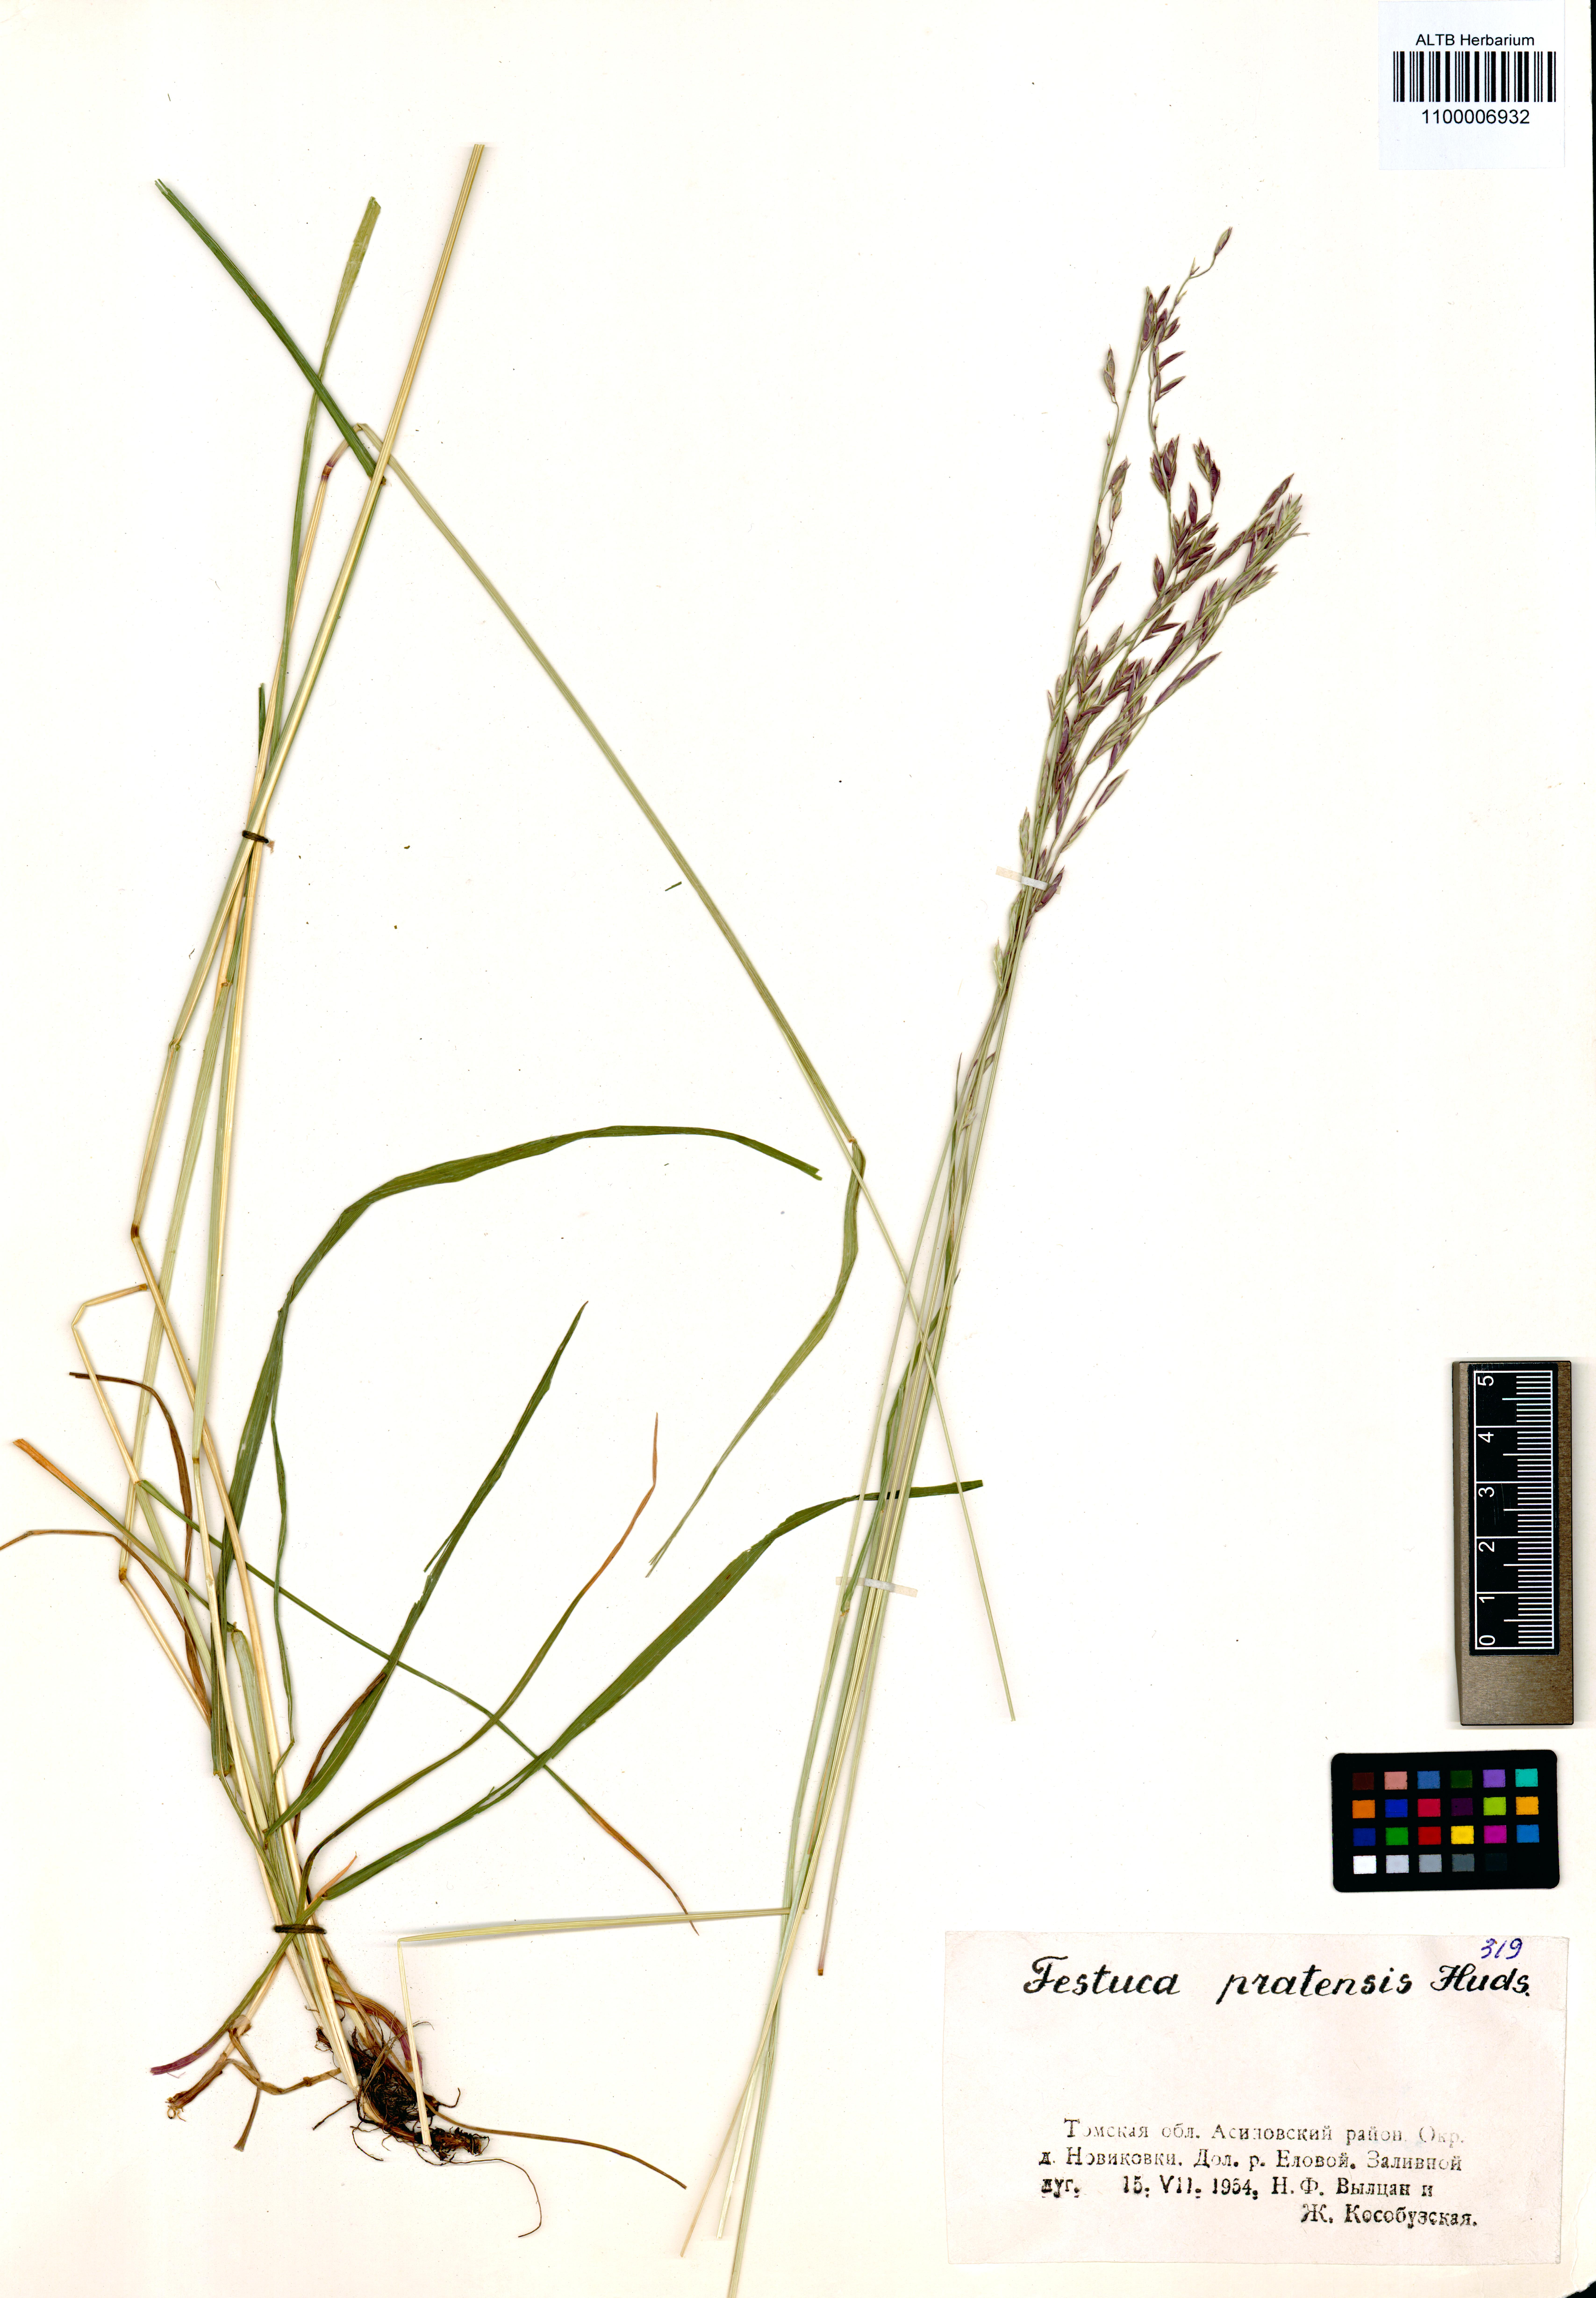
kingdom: Plantae
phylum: Tracheophyta
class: Liliopsida
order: Poales
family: Poaceae
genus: Lolium
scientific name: Lolium pratense
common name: Dover grass
